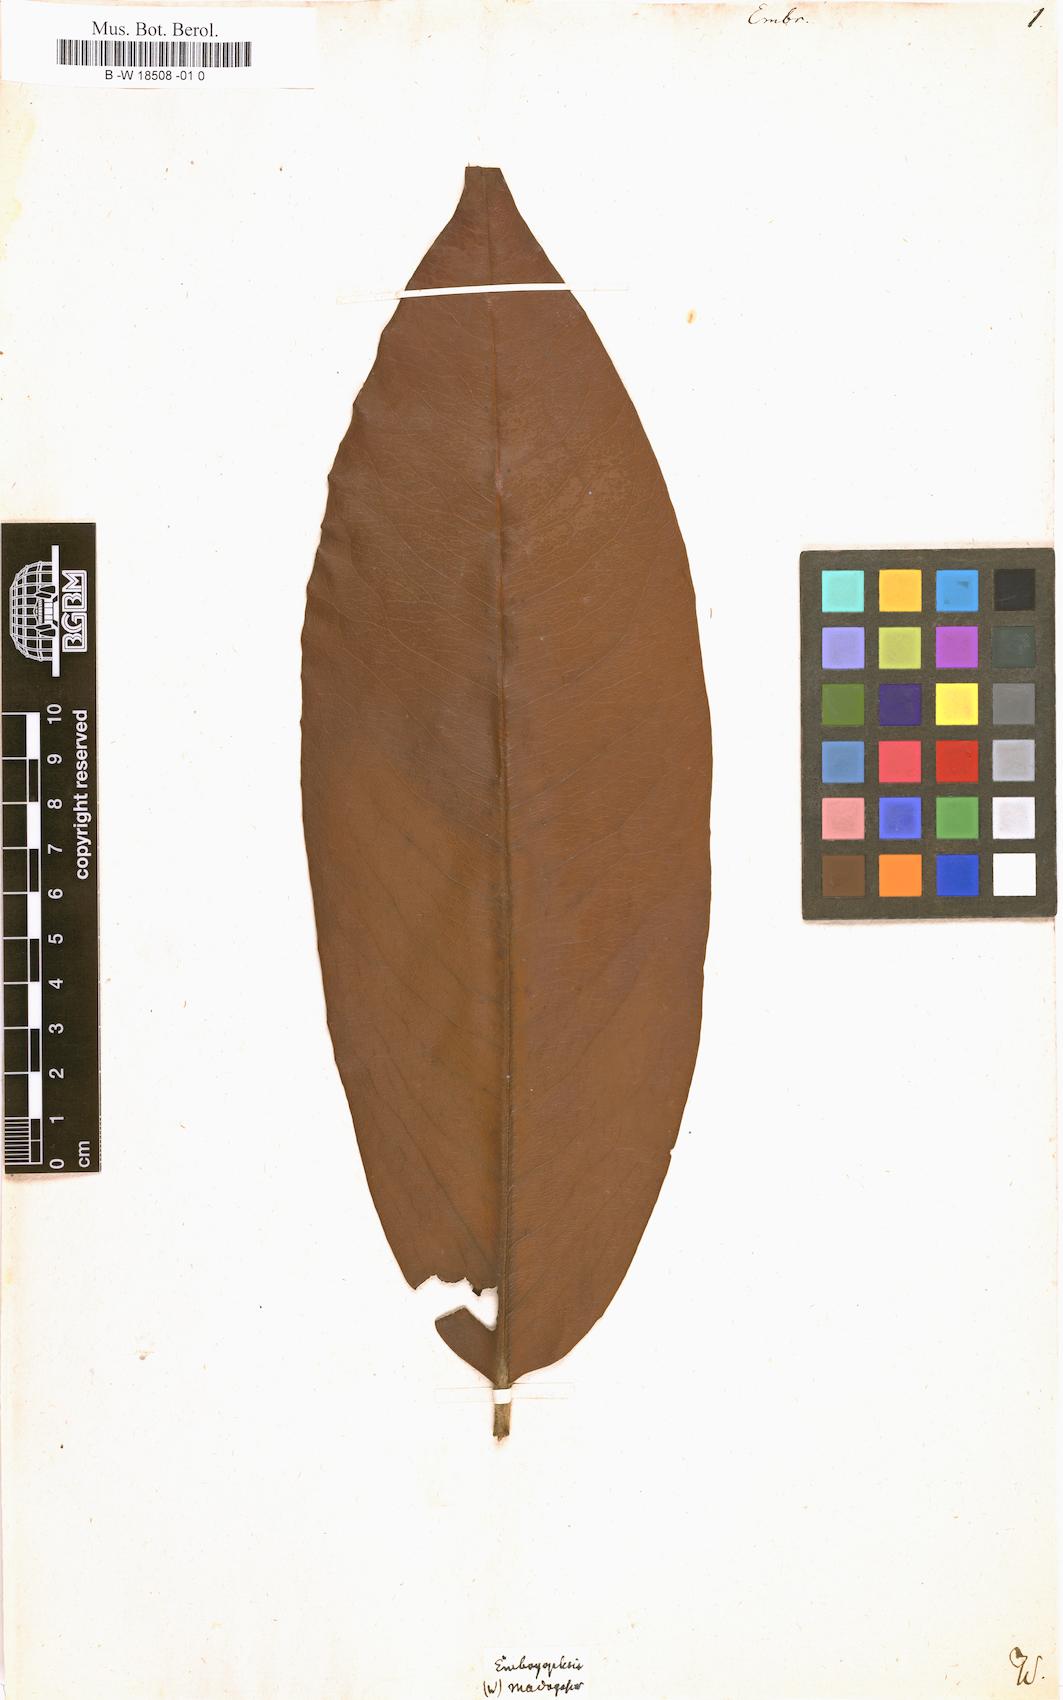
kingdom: Plantae
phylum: Tracheophyta
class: Magnoliopsida
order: Ericales
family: Ebenaceae
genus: Diospyros
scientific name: Diospyros
